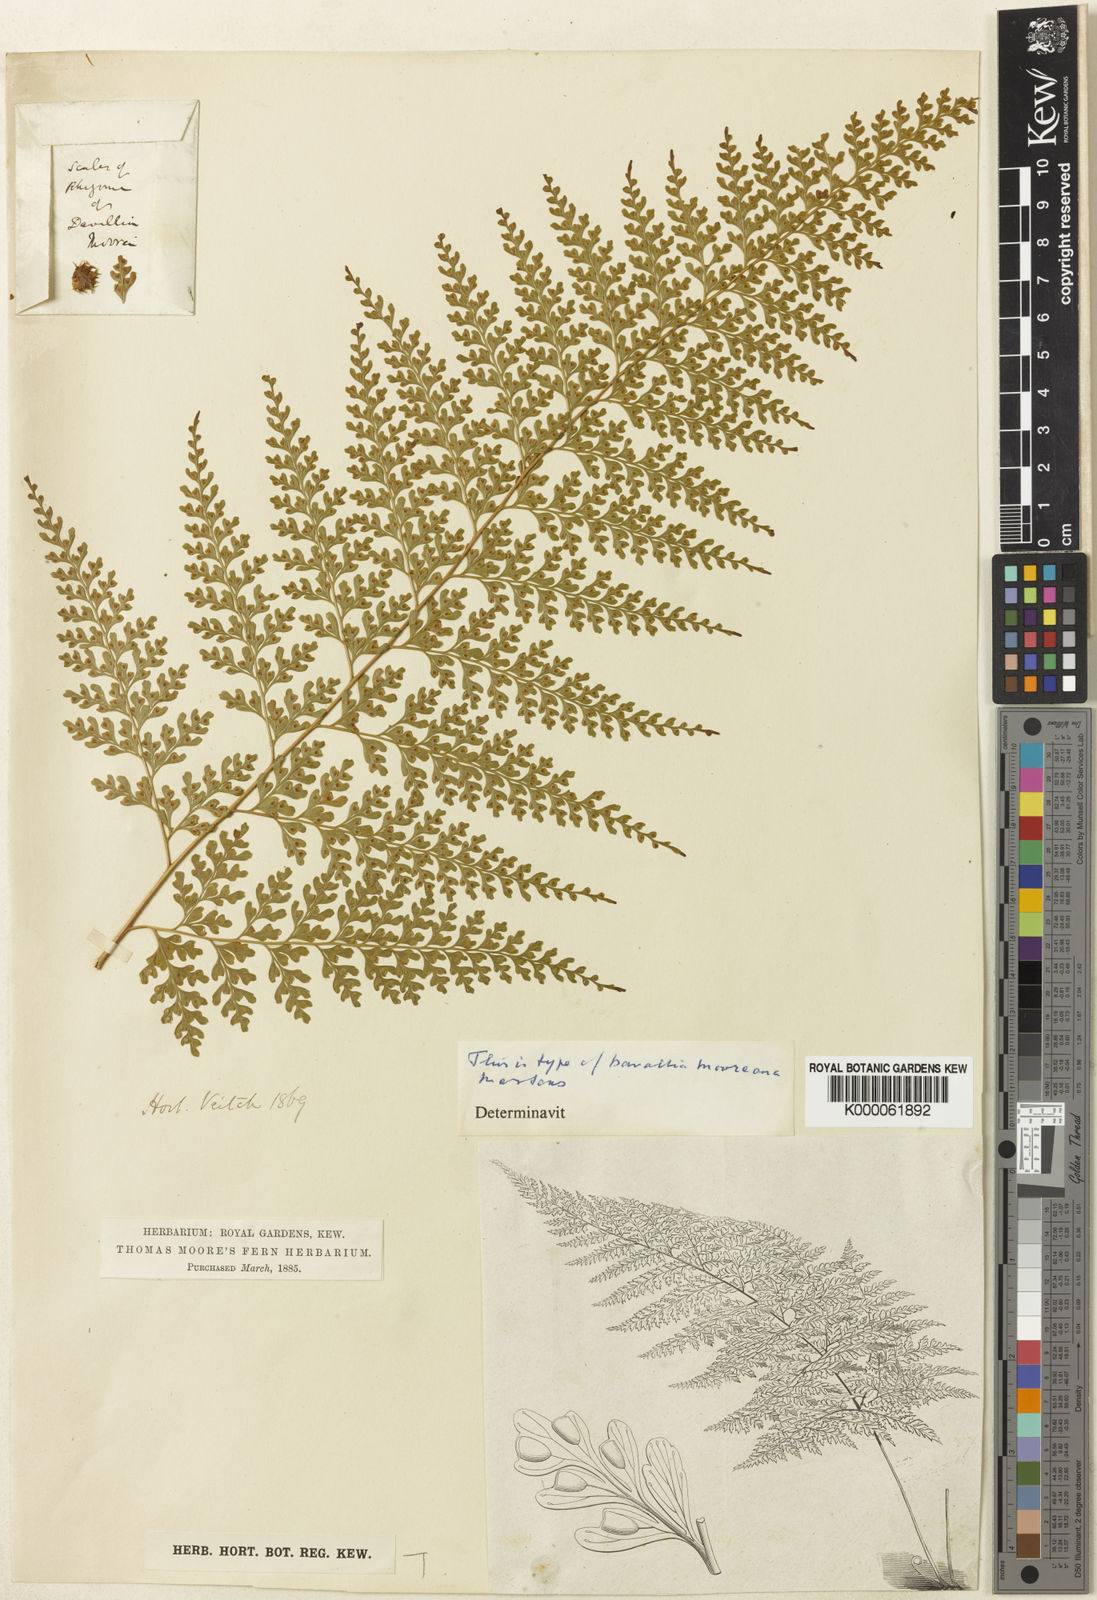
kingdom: Plantae
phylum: Tracheophyta
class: Polypodiopsida
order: Polypodiales
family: Hypodematiaceae
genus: Leucostegia
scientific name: Leucostegia pallida
